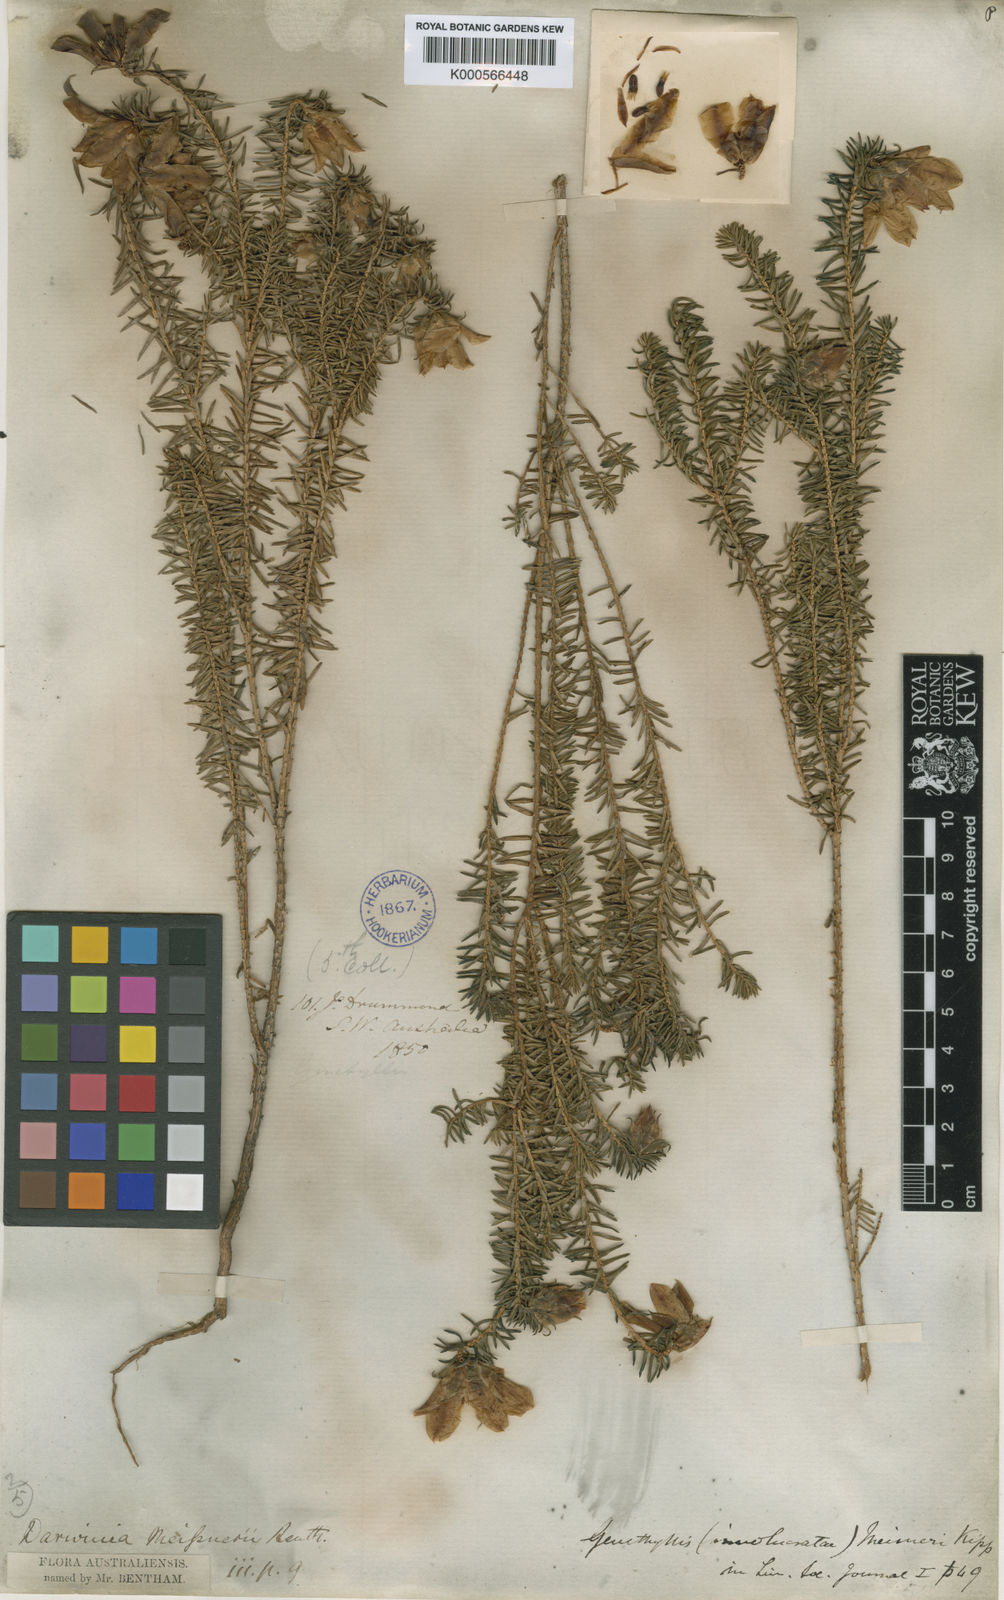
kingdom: Plantae
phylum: Tracheophyta
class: Magnoliopsida
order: Myrtales
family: Myrtaceae
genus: Darwinia
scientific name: Darwinia oxylepis
